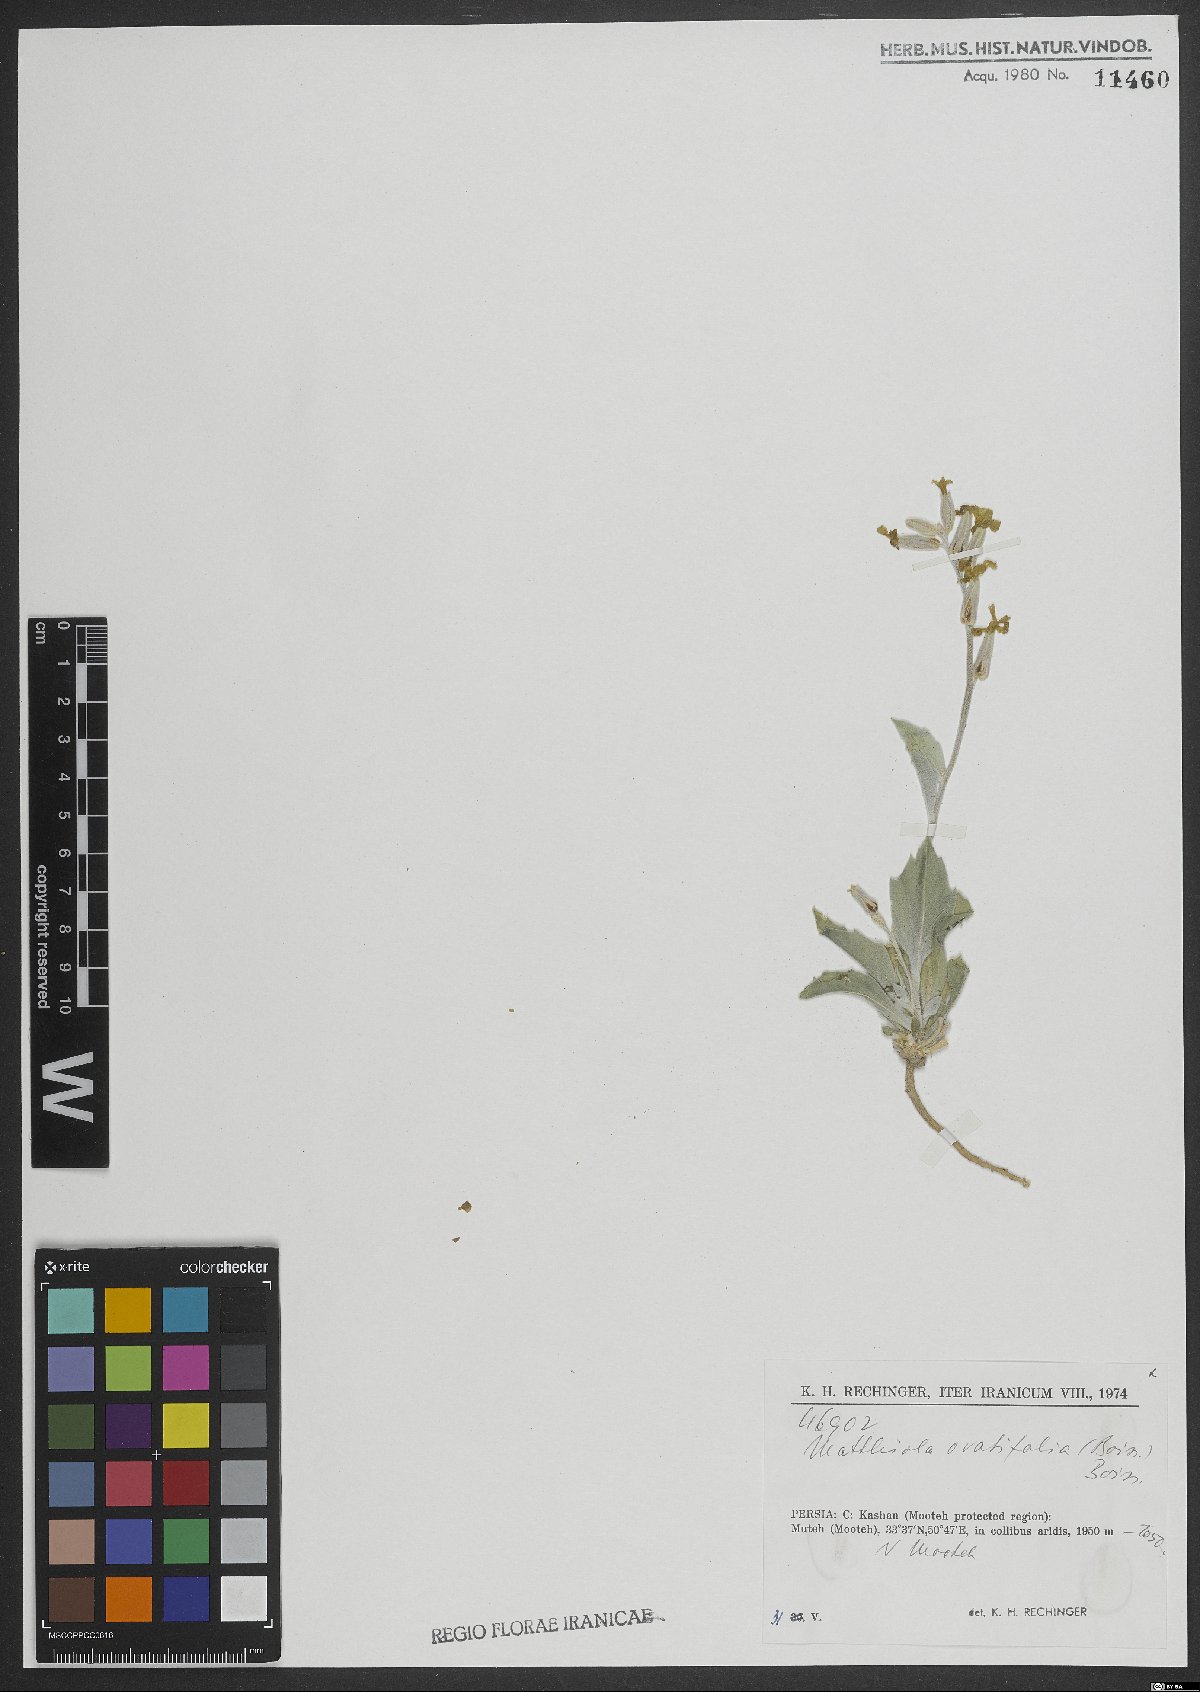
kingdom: Plantae
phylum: Tracheophyta
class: Magnoliopsida
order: Brassicales
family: Brassicaceae
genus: Matthiola
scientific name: Matthiola ovatifolia
